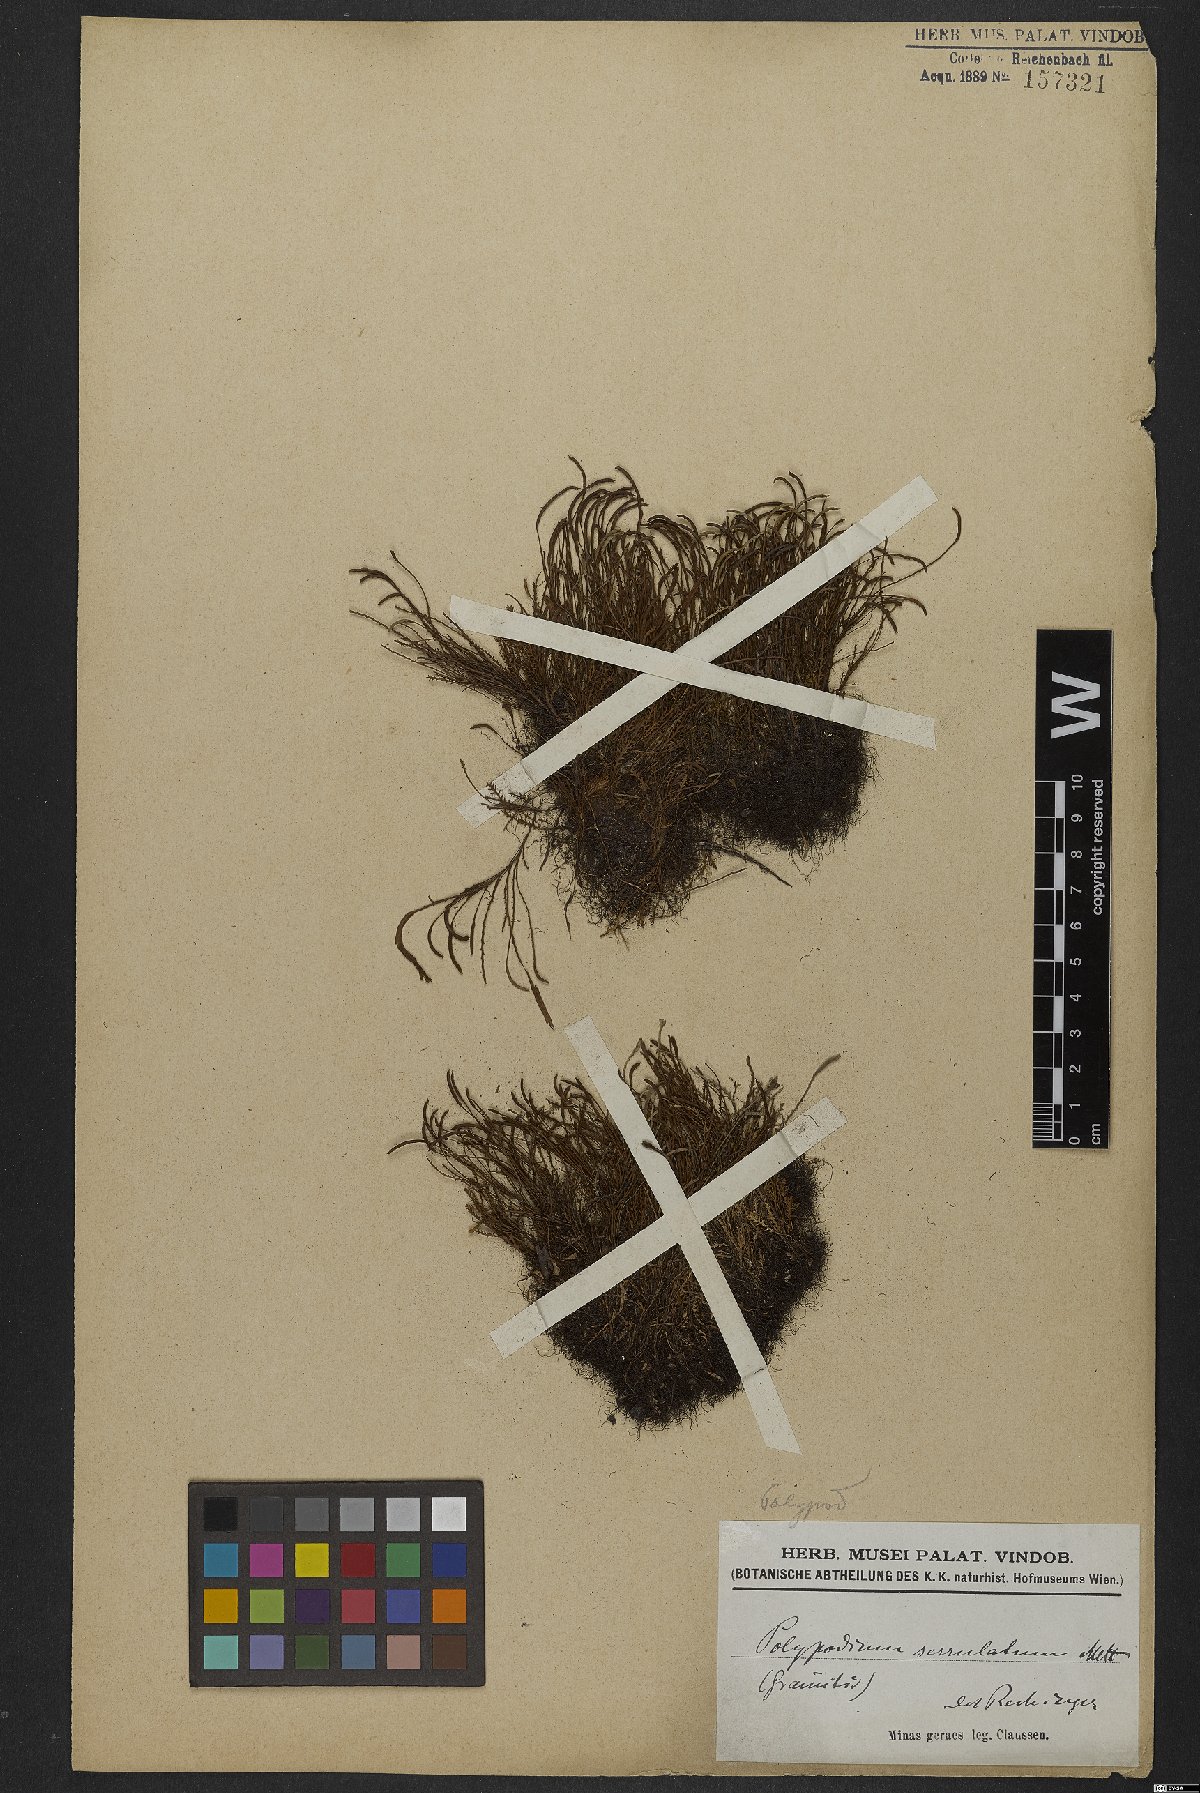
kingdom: Plantae
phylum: Tracheophyta
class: Polypodiopsida
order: Polypodiales
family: Polypodiaceae
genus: Cochlidium
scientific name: Cochlidium serrulatum
